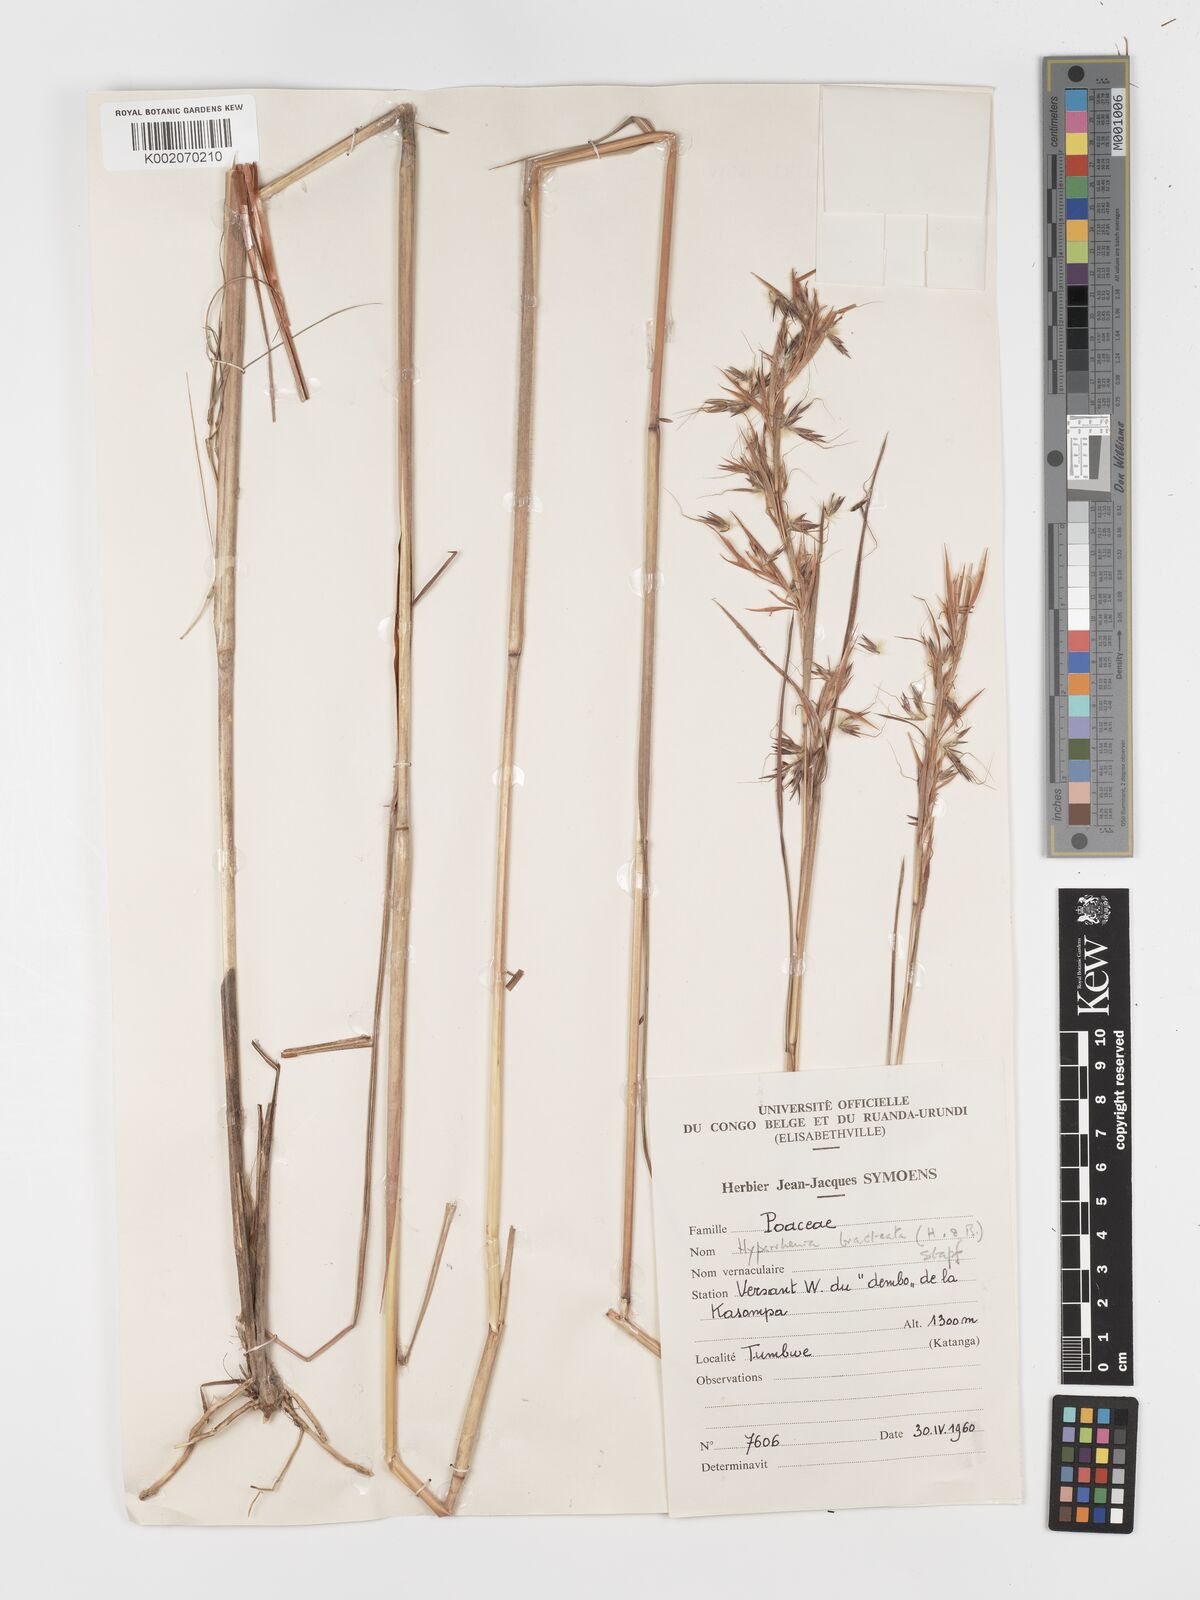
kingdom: Plantae
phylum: Tracheophyta
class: Liliopsida
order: Poales
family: Poaceae
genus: Hyparrhenia
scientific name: Hyparrhenia bracteata
